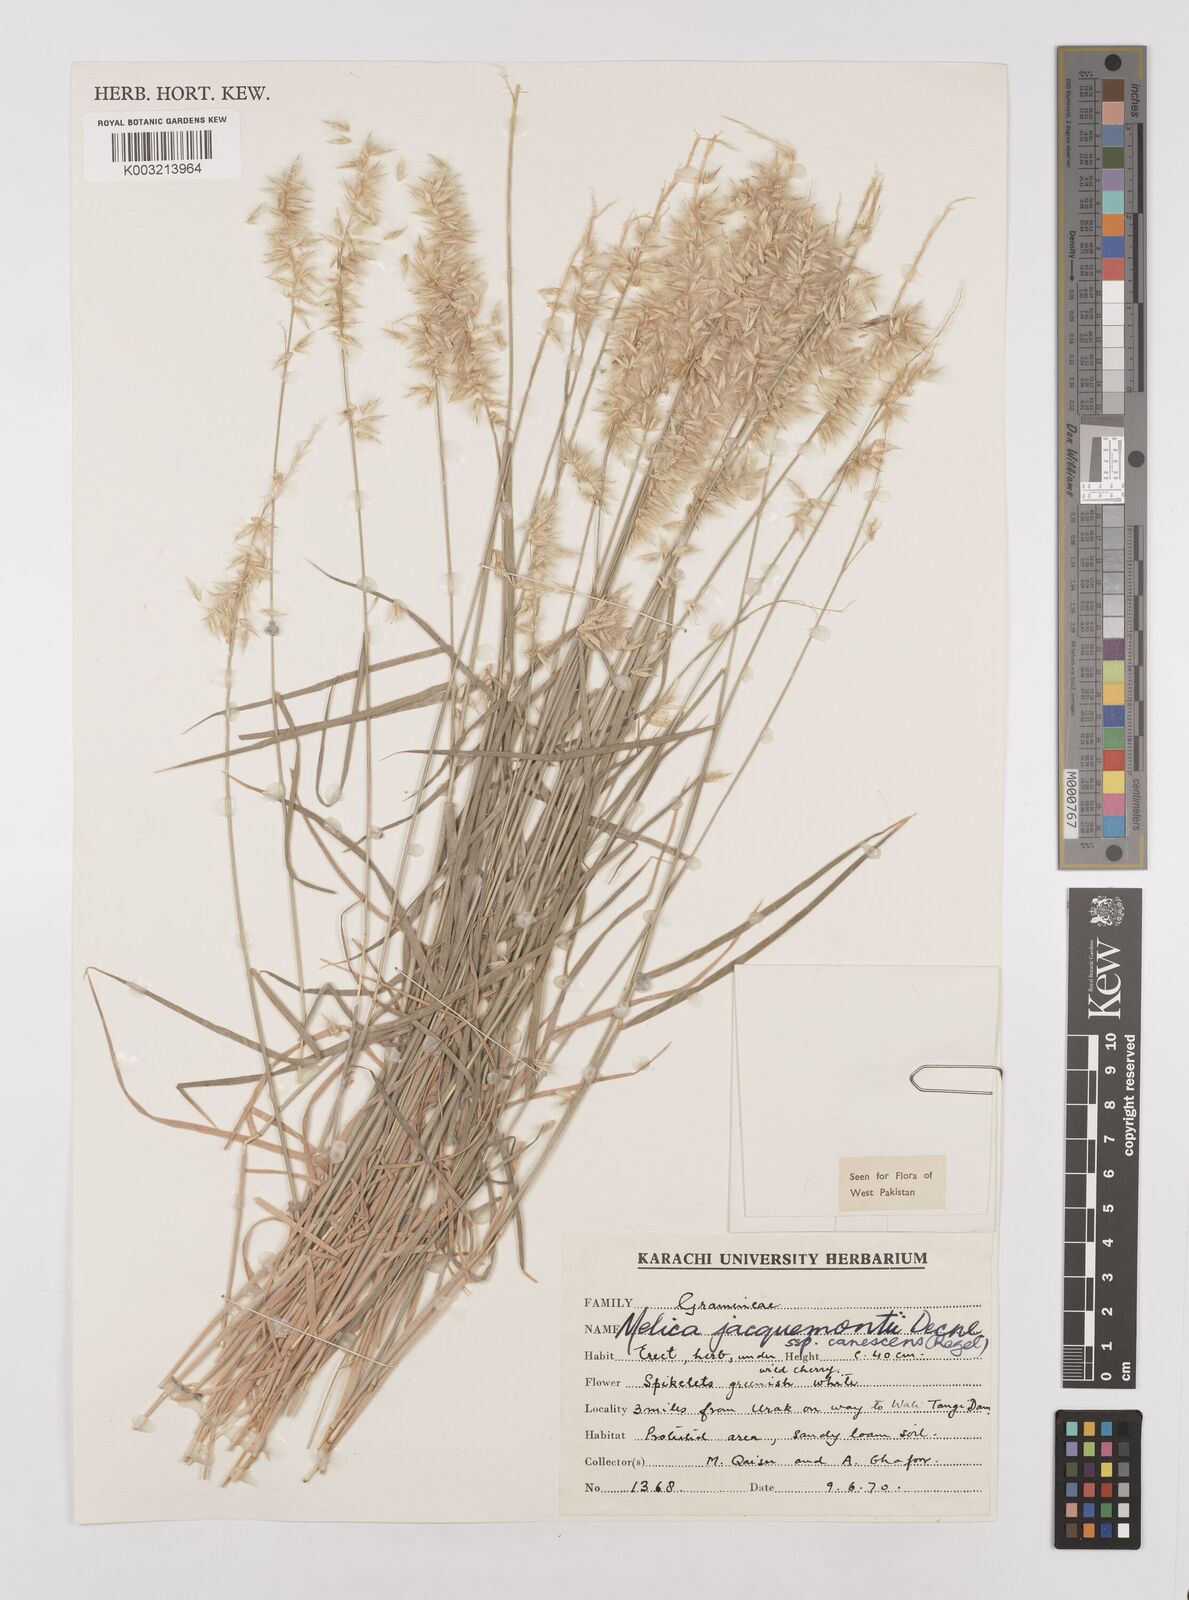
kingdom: Plantae
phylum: Tracheophyta
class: Liliopsida
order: Poales
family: Poaceae
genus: Melica
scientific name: Melica persica
